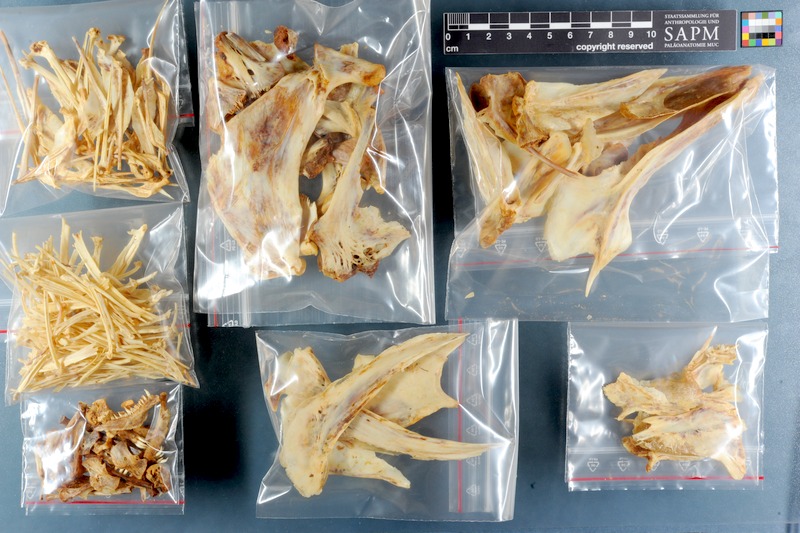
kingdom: Animalia
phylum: Chordata
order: Perciformes
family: Sparidae
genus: Sparodon
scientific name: Sparodon durbanensis
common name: White musselcracker
